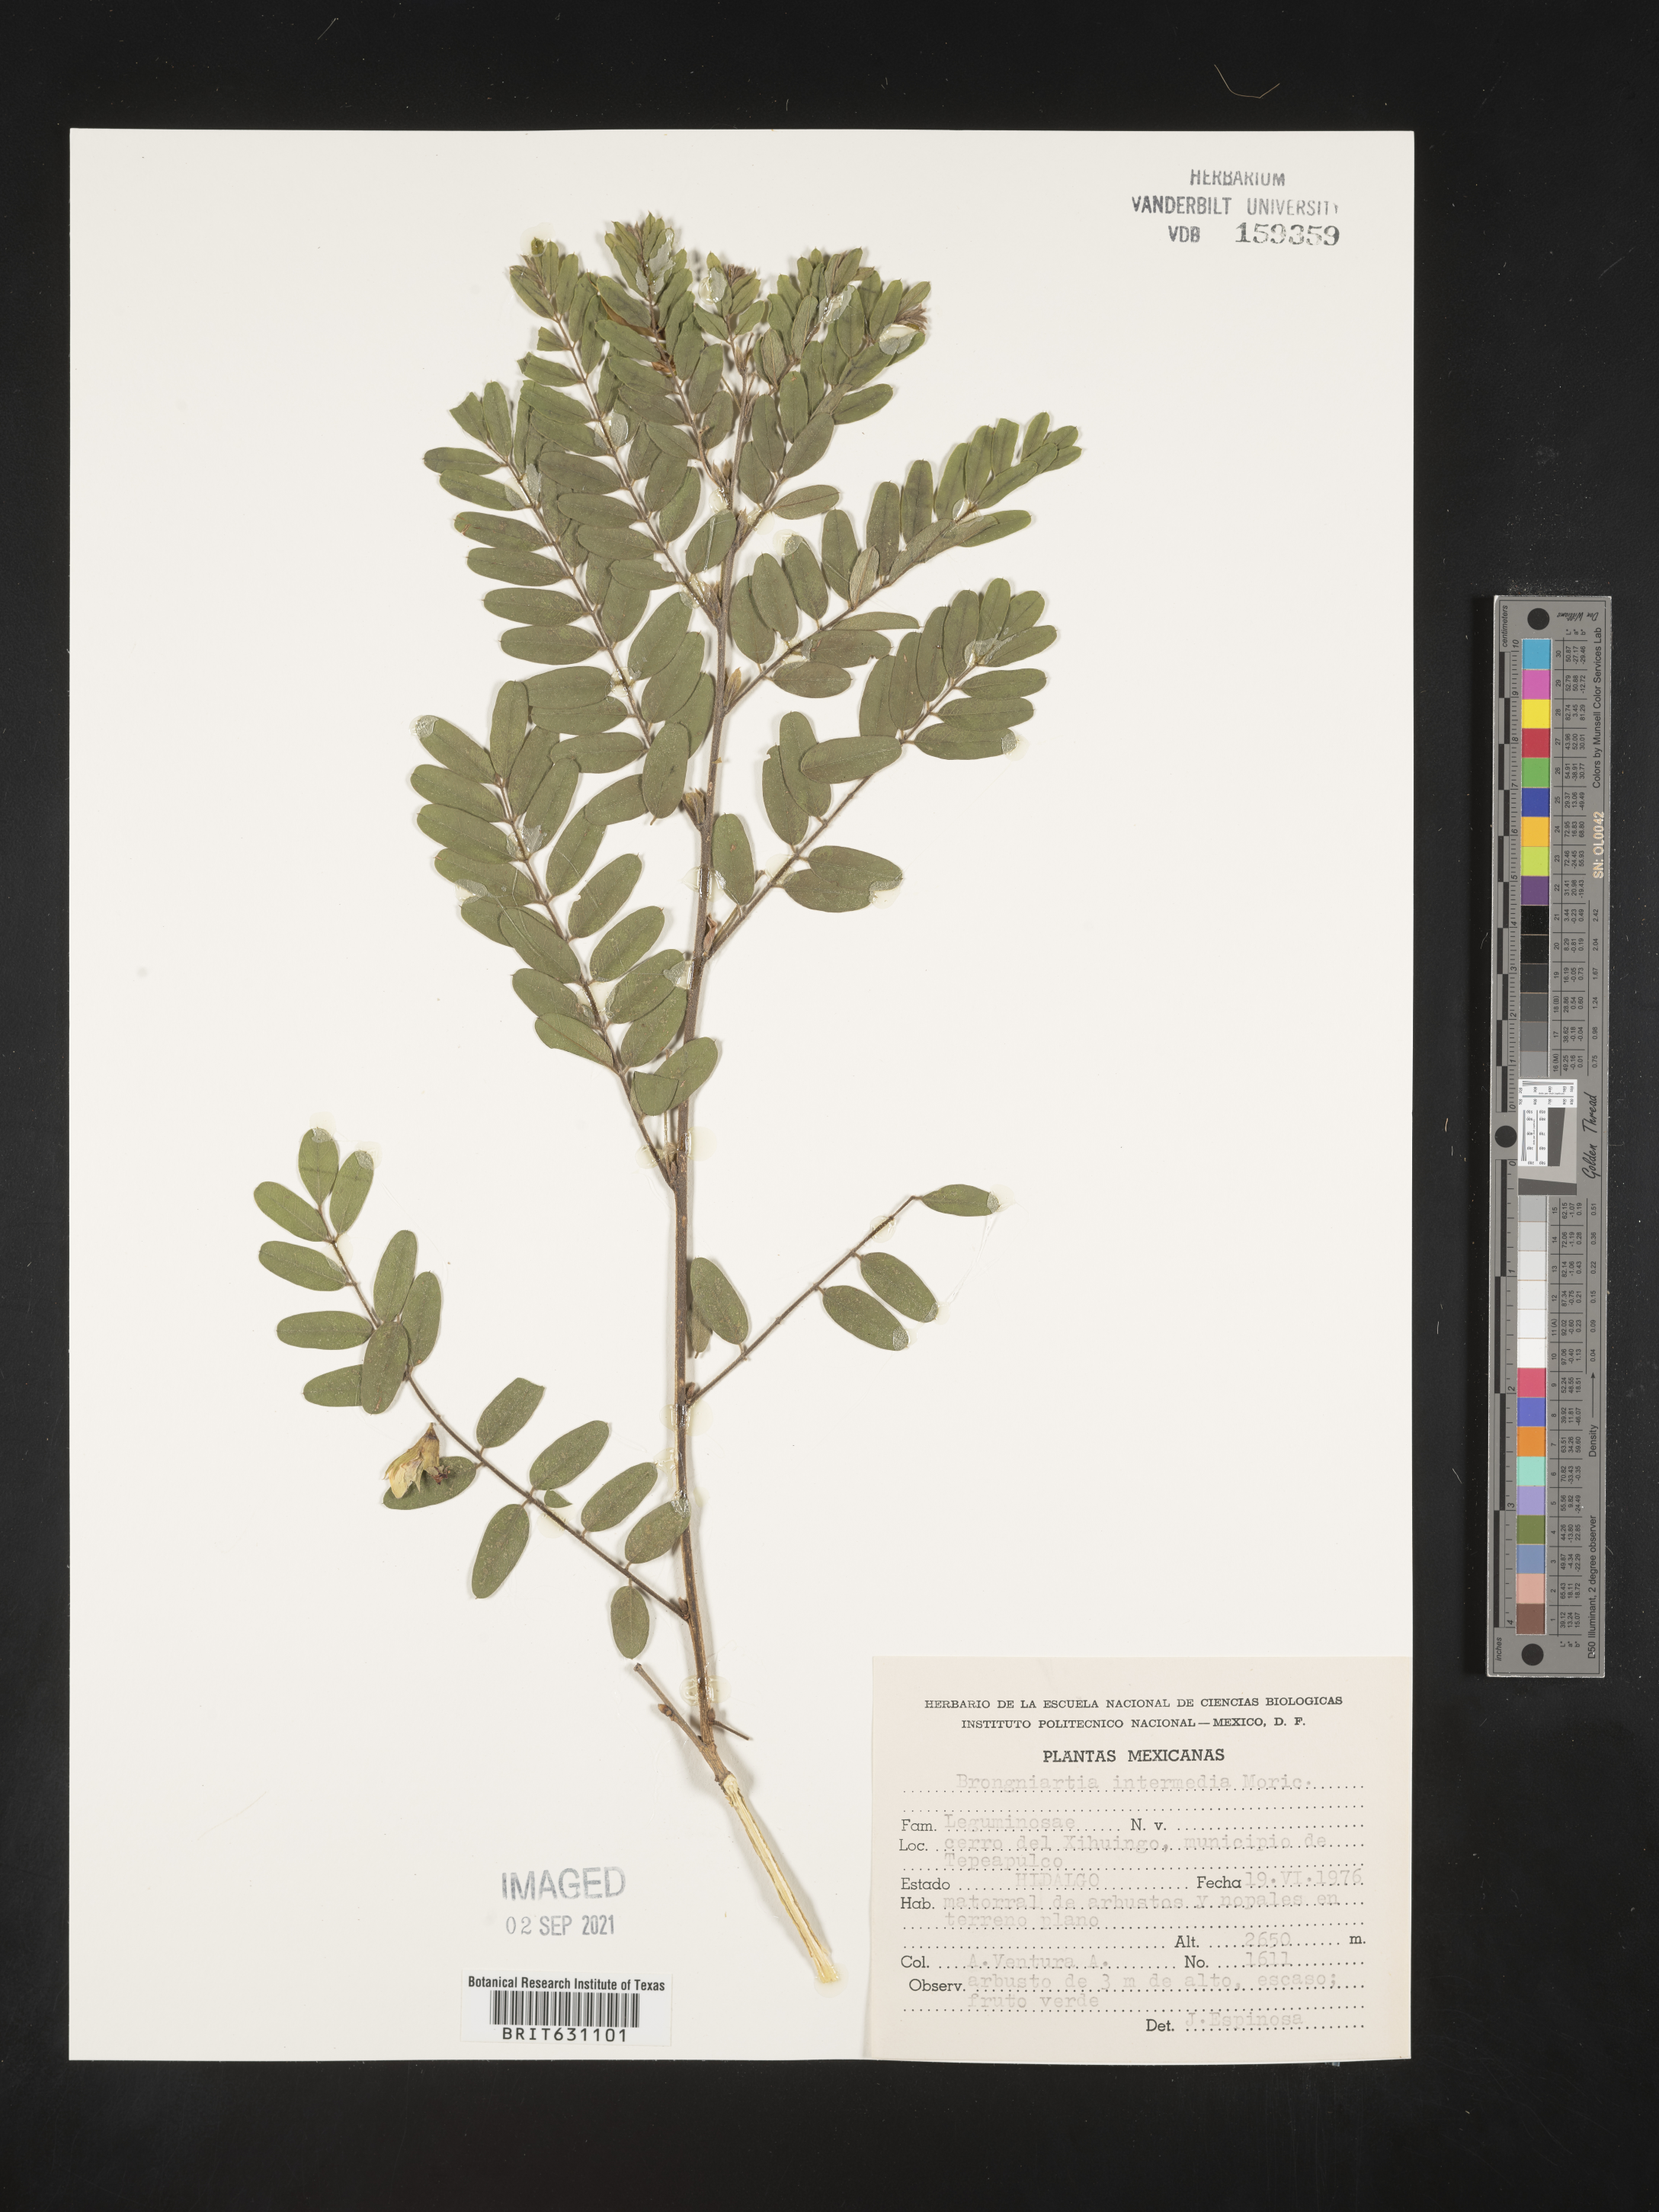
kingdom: Plantae
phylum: Tracheophyta
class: Magnoliopsida
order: Fabales
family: Fabaceae
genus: Brongniartia
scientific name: Brongniartia
